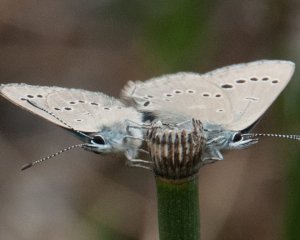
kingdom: Animalia
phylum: Arthropoda
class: Insecta
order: Lepidoptera
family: Lycaenidae
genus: Glaucopsyche
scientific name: Glaucopsyche lygdamus
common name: Silvery Blue
